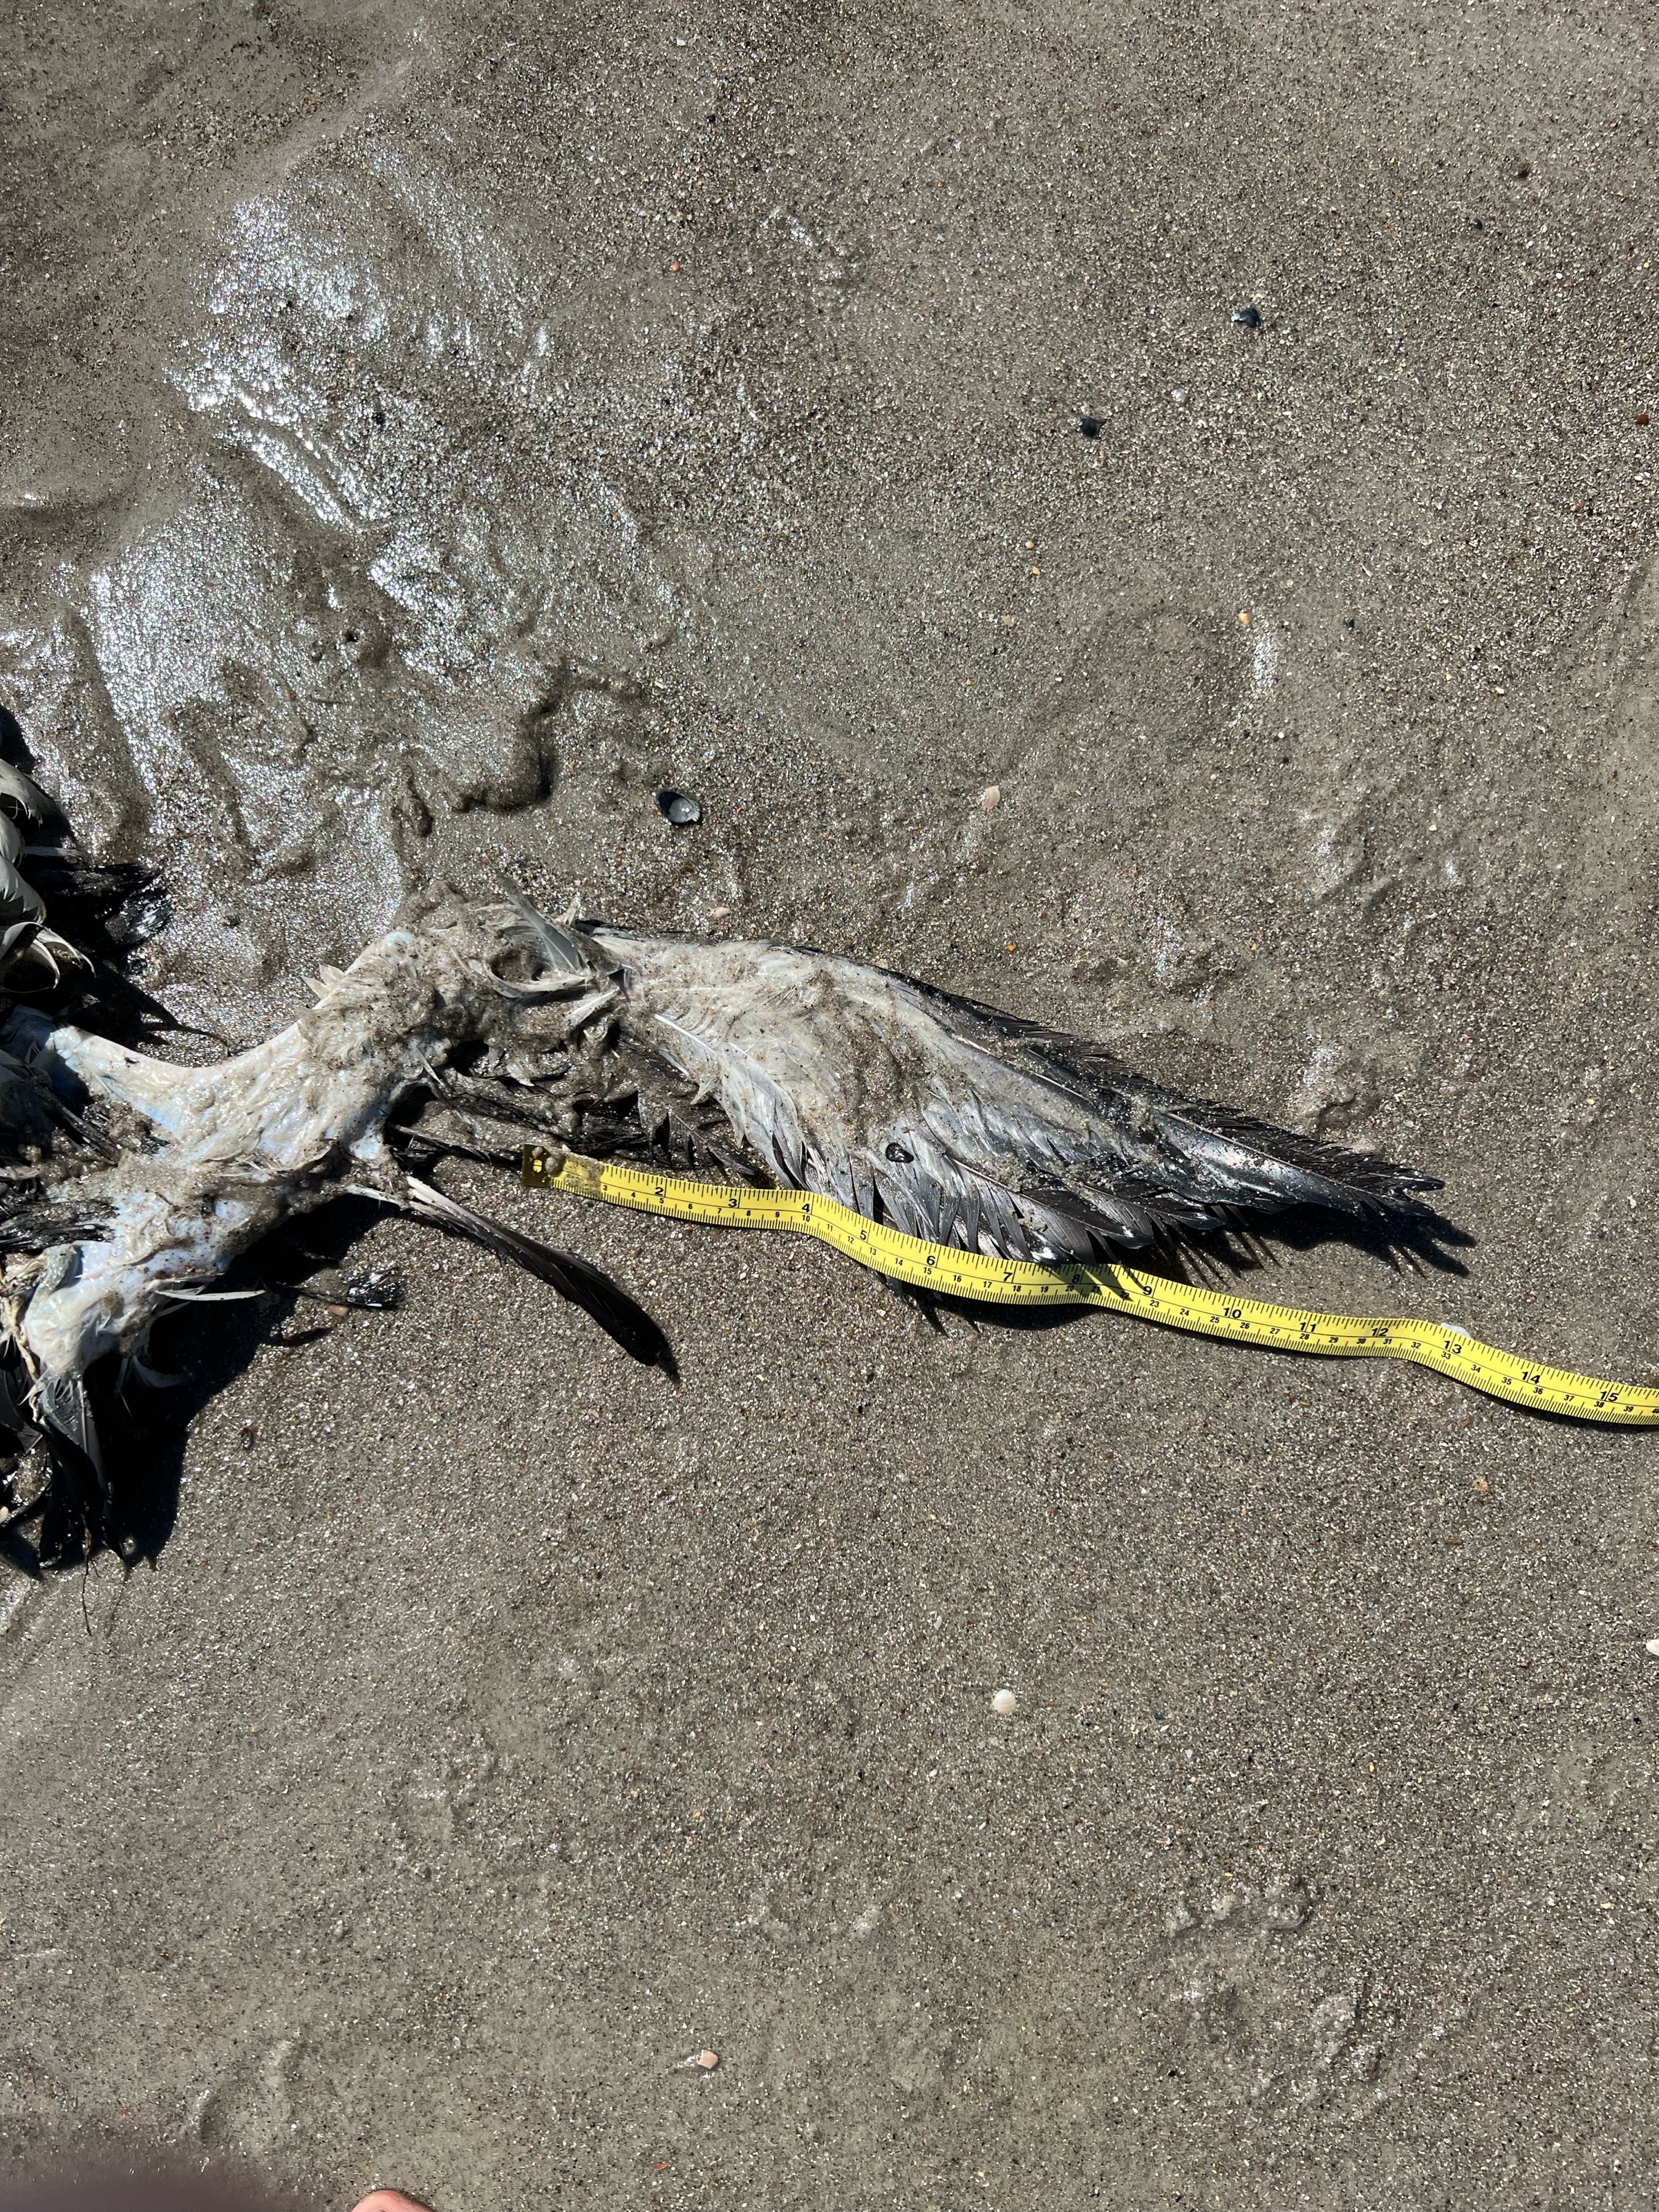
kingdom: Animalia
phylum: Chordata
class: Aves
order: Gaviiformes
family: Gaviidae
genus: Gavia
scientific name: Gavia immer
